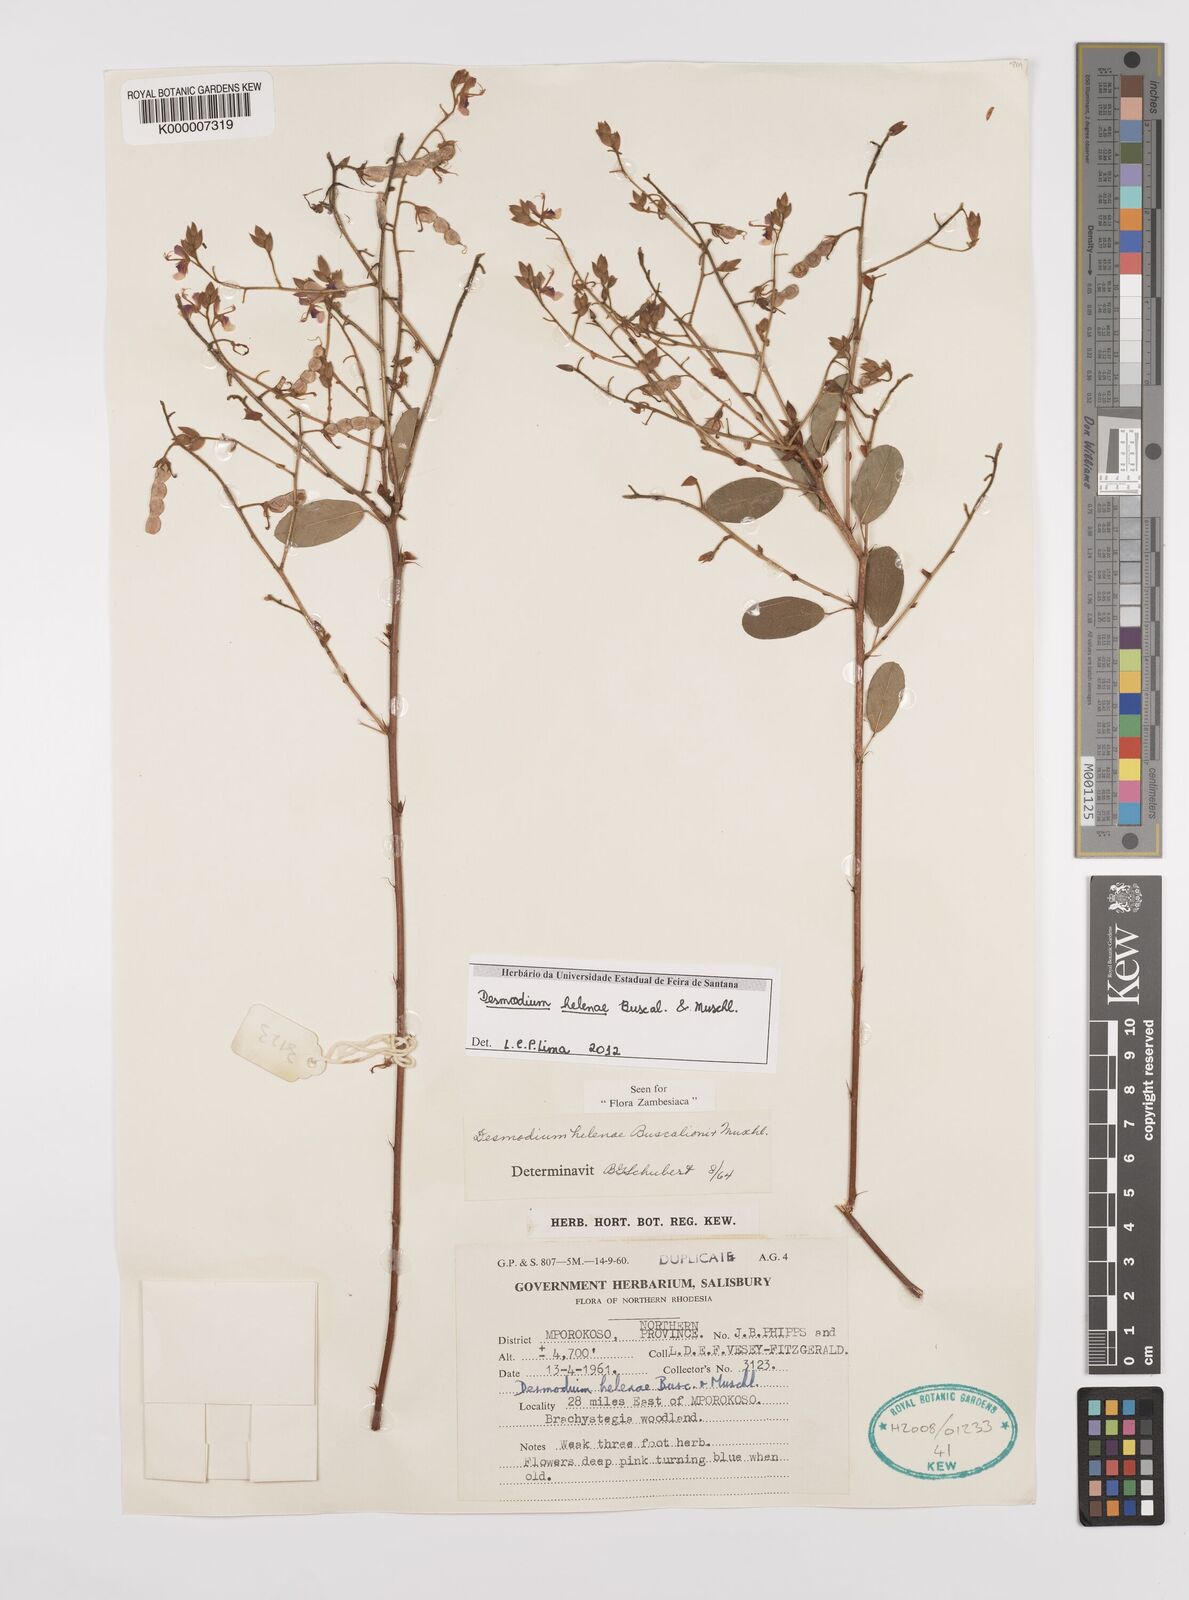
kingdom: Plantae
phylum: Tracheophyta
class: Magnoliopsida
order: Fabales
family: Fabaceae
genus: Grona
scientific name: Grona helenae
